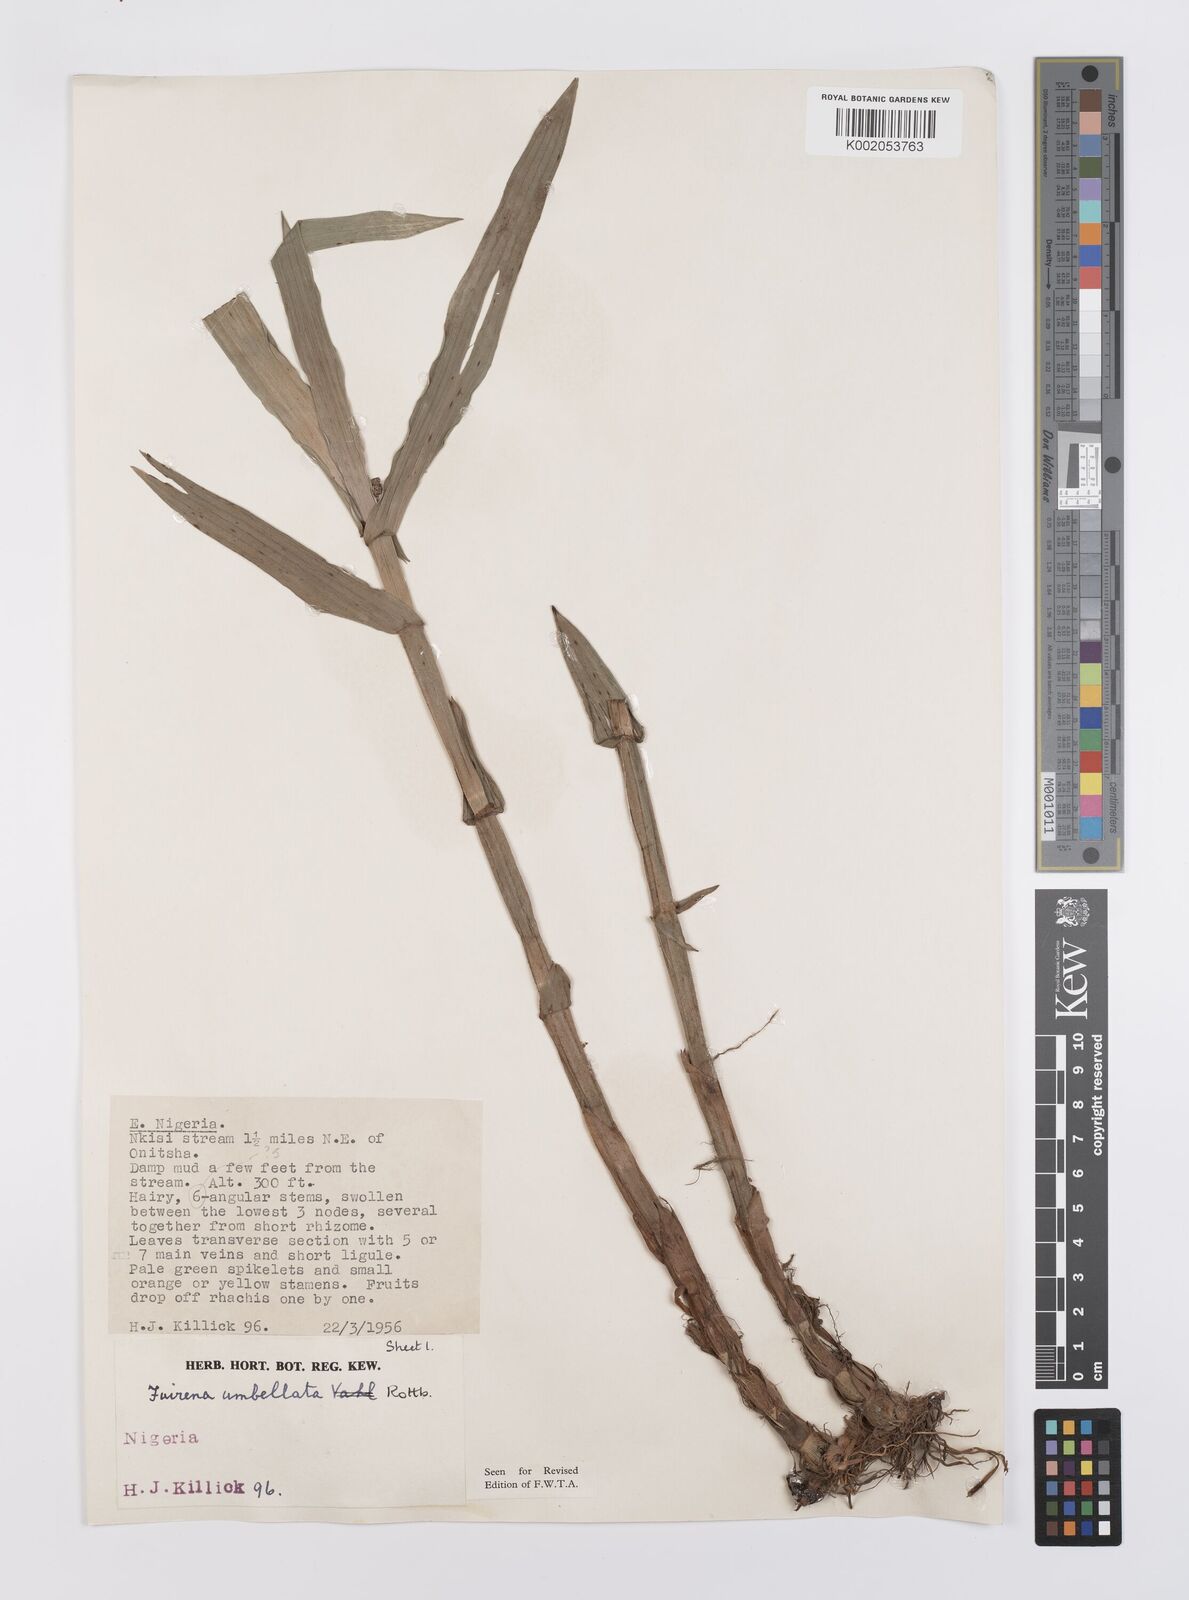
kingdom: Plantae
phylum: Tracheophyta
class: Liliopsida
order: Poales
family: Cyperaceae
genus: Fuirena
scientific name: Fuirena umbellata
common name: Yefen
